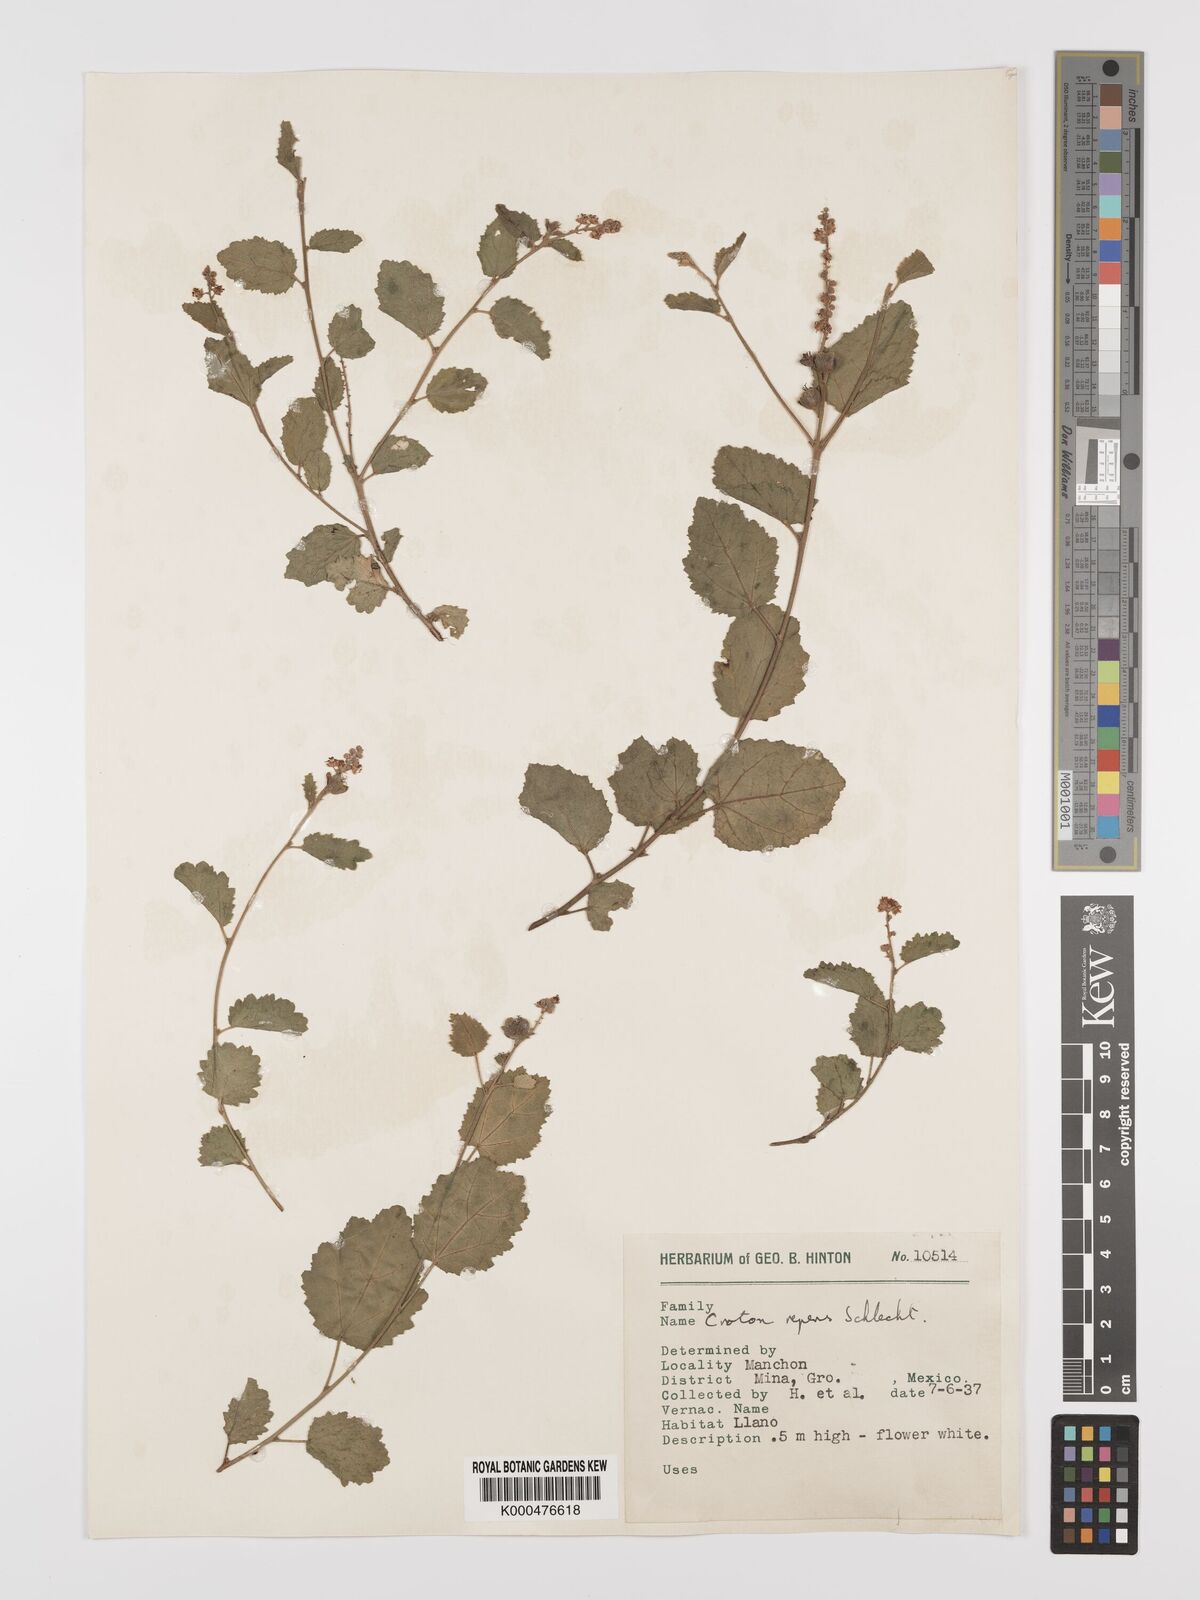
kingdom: Plantae
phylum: Tracheophyta
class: Magnoliopsida
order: Malpighiales
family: Euphorbiaceae
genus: Croton
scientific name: Croton repens
